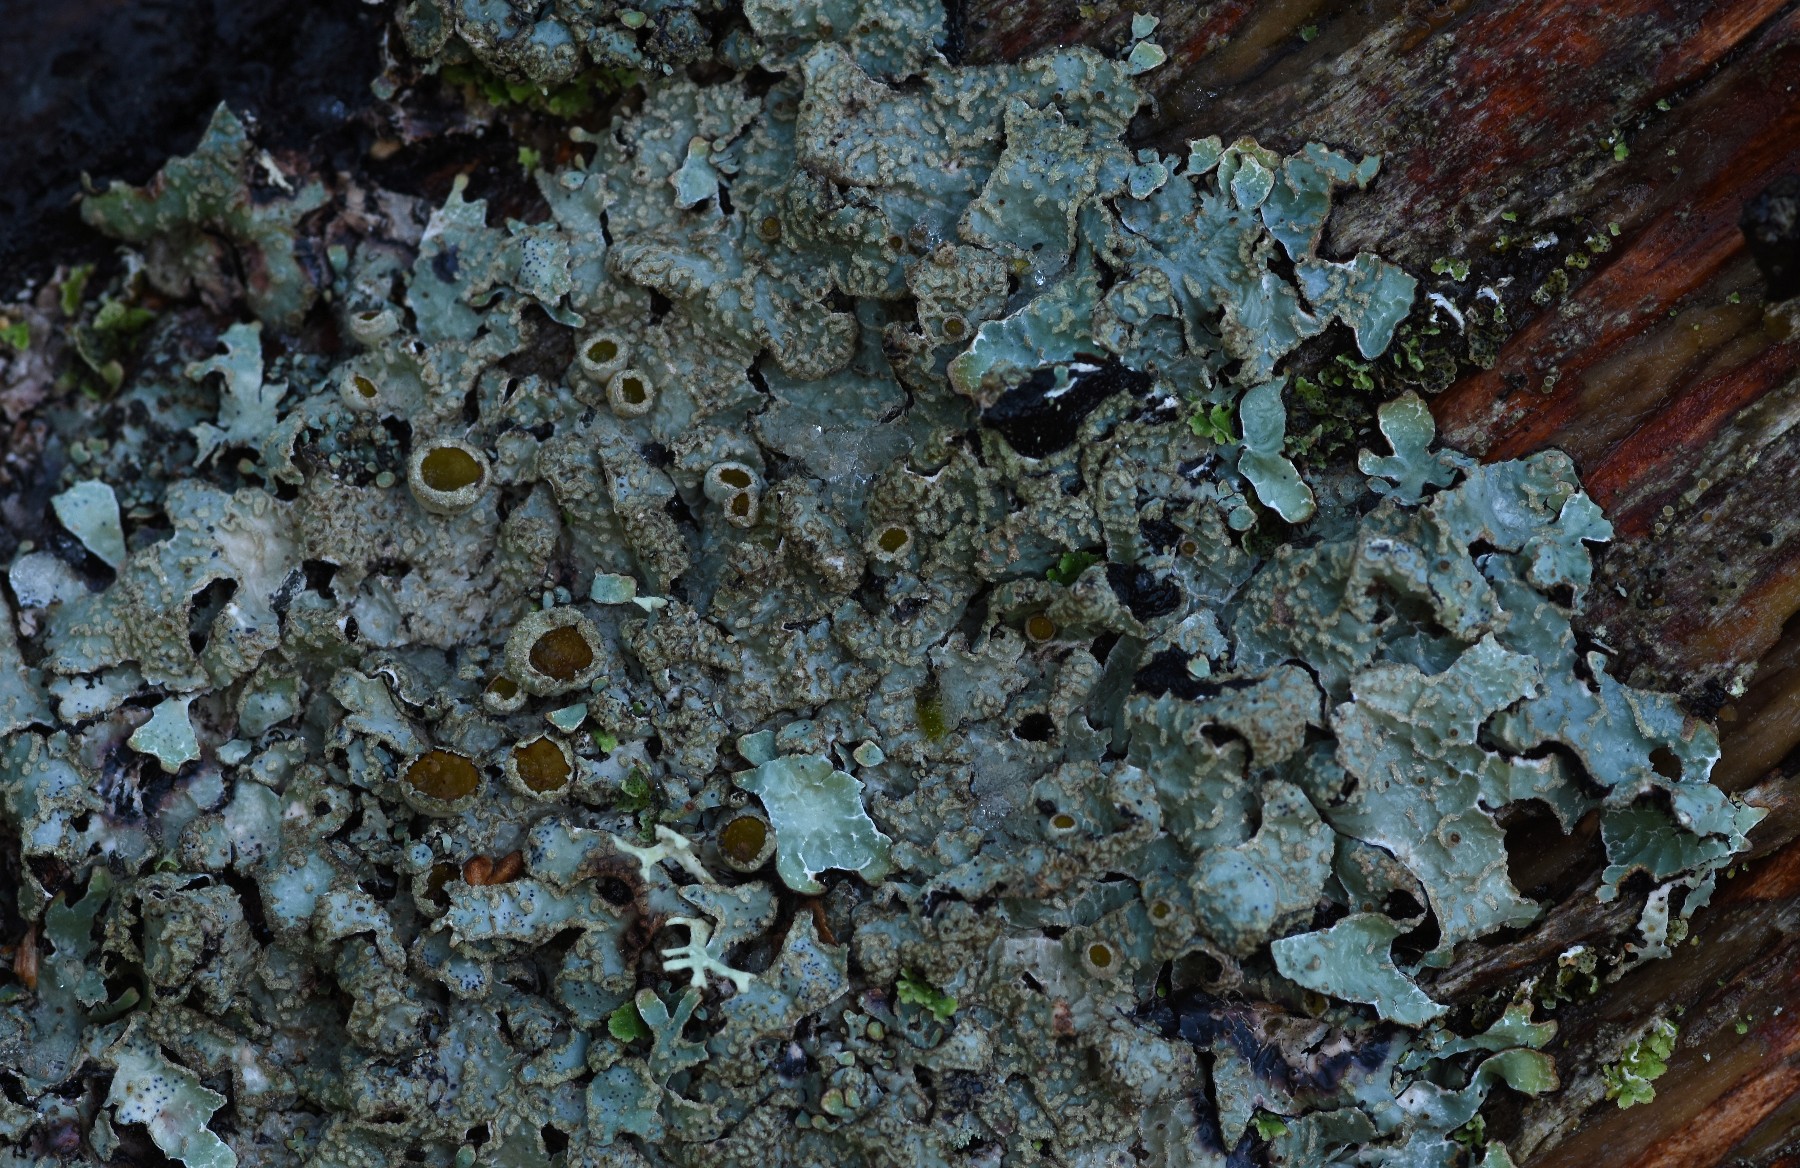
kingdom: Fungi
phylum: Ascomycota
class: Lecanoromycetes
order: Lecanorales
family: Parmeliaceae
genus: Parmelia
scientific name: Parmelia sulcata
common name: rynket skållav
